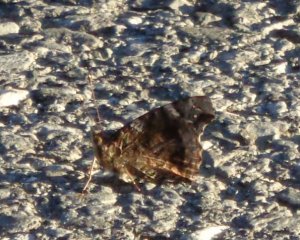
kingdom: Animalia
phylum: Arthropoda
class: Insecta
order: Lepidoptera
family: Nymphalidae
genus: Vanessa
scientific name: Vanessa atalanta
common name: Red Admiral
